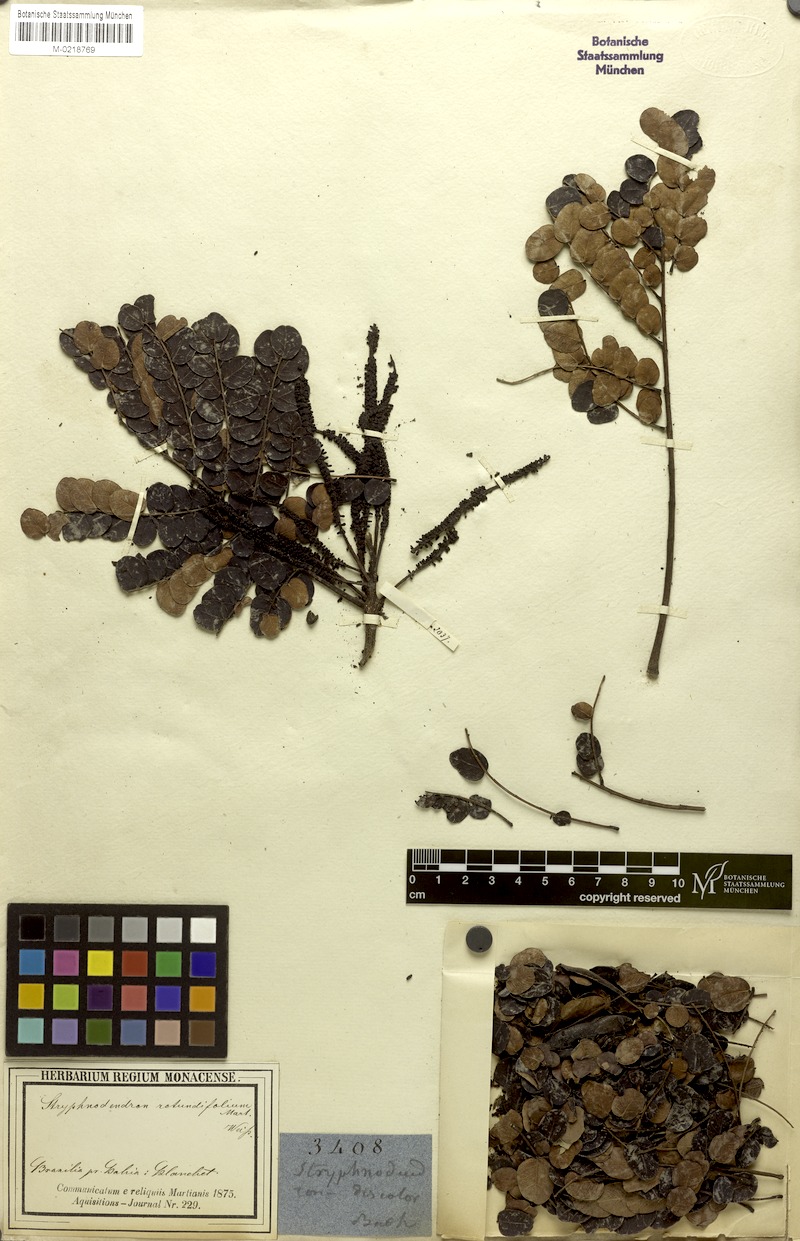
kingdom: Plantae
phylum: Tracheophyta
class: Magnoliopsida
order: Fabales
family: Fabaceae
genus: Stryphnodendron
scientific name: Stryphnodendron rotundifolium
